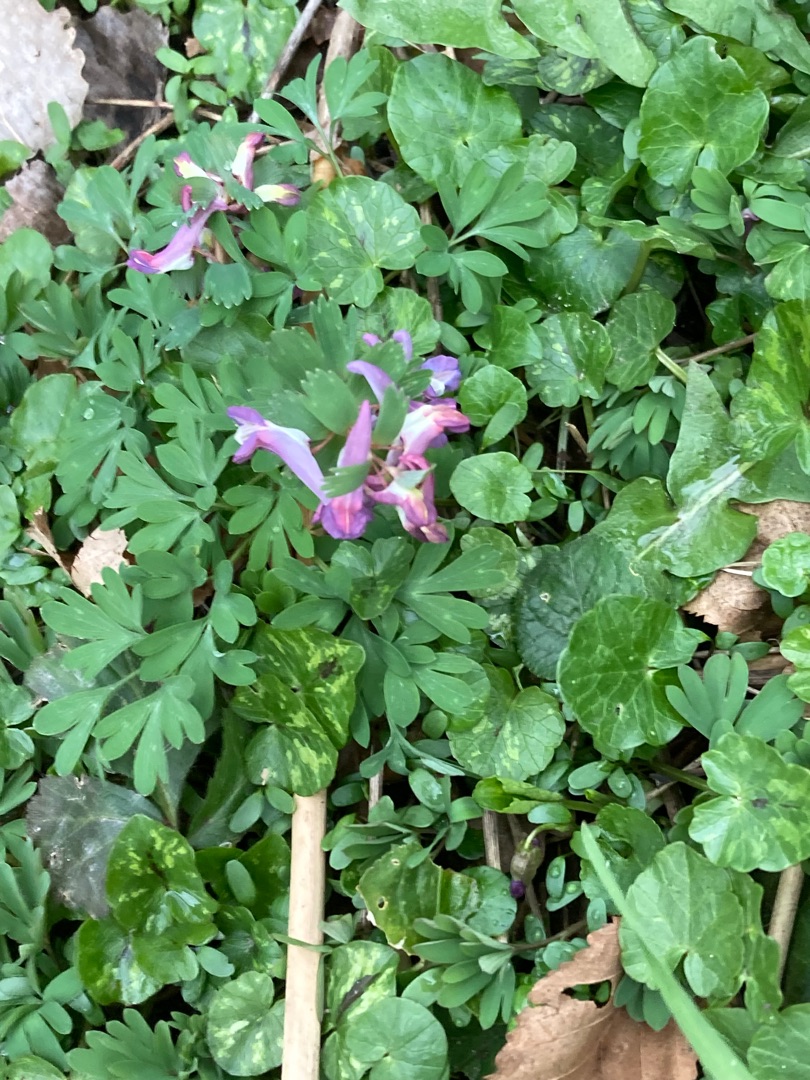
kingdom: Plantae
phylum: Tracheophyta
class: Magnoliopsida
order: Ranunculales
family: Papaveraceae
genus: Corydalis
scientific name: Corydalis solida
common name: Langstilket lærkespore
